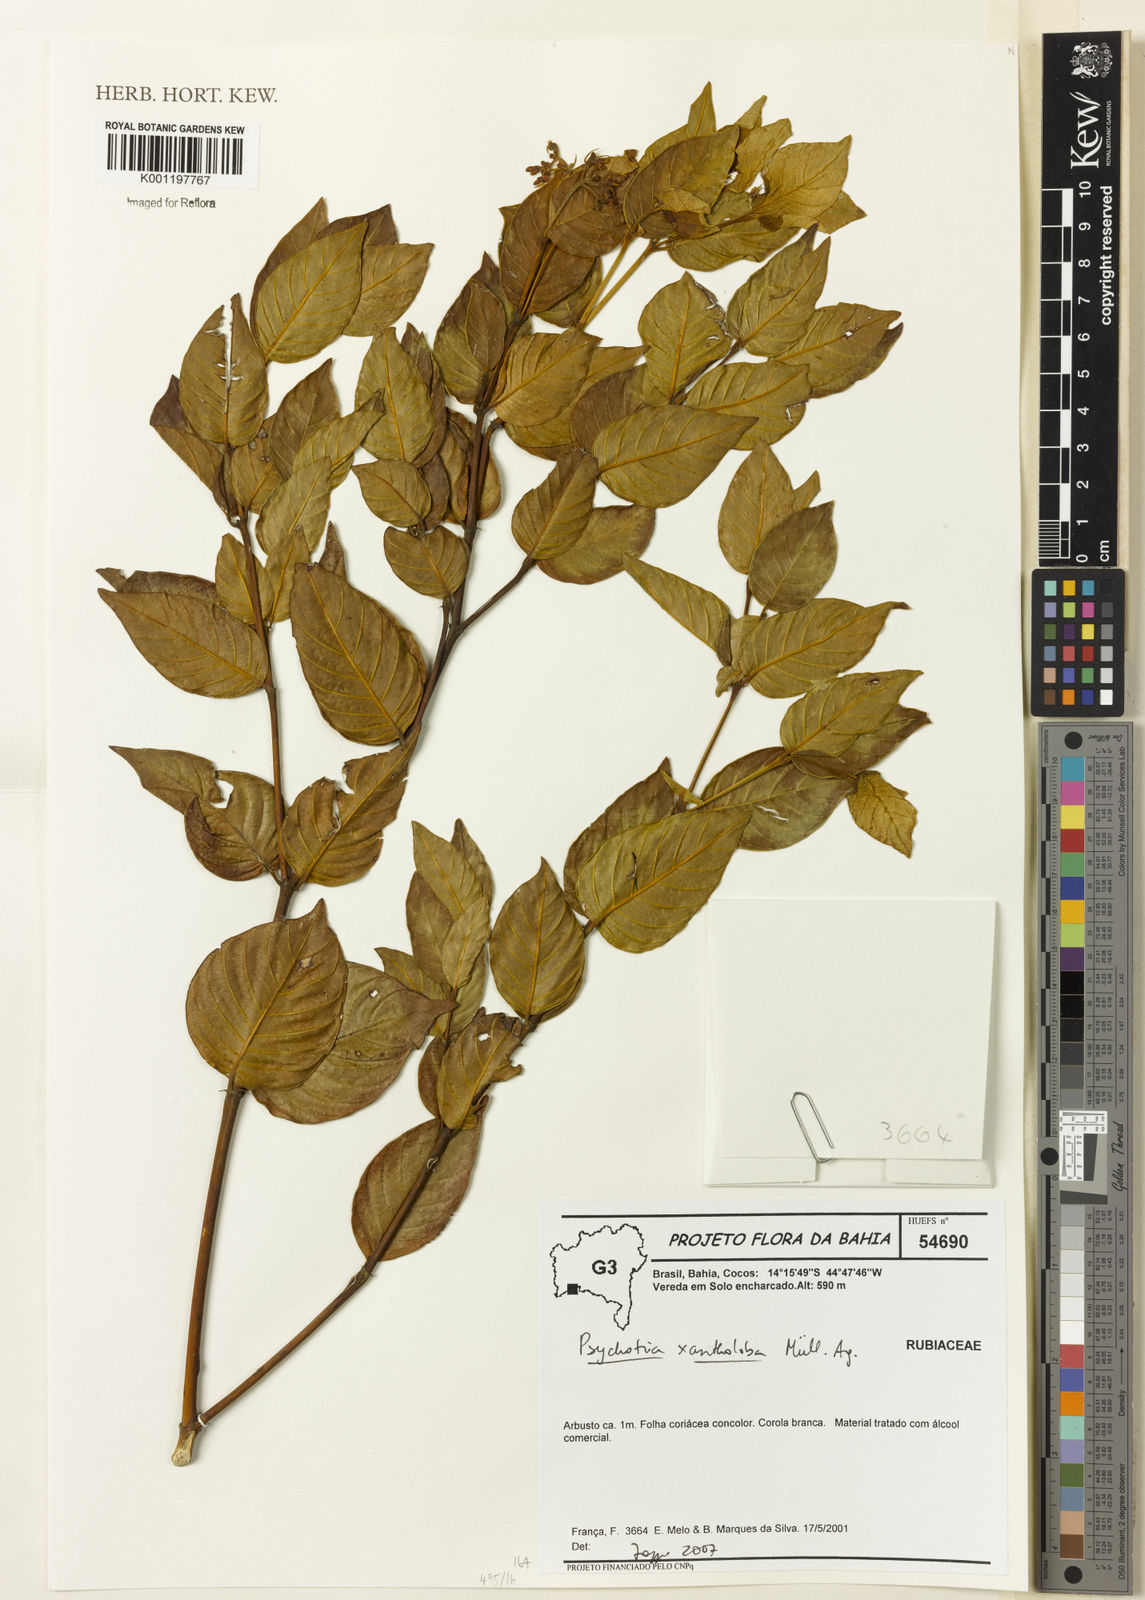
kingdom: Plantae
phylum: Tracheophyta
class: Magnoliopsida
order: Gentianales
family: Rubiaceae
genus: Psychotria
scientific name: Psychotria
